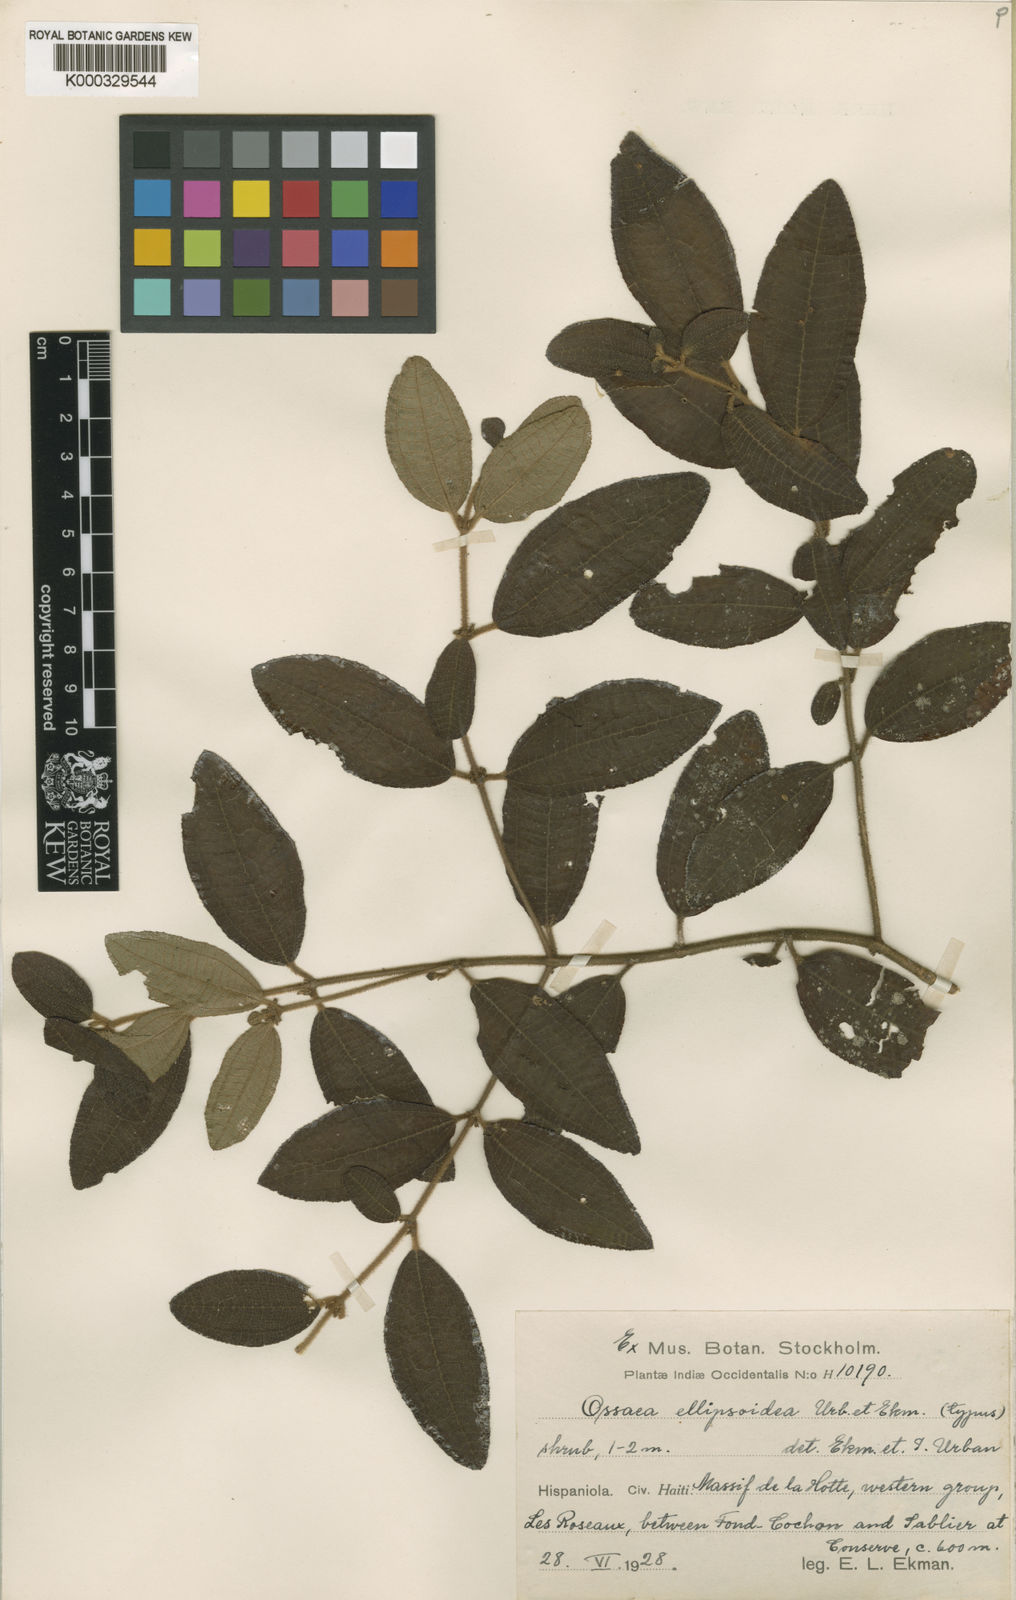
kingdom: Plantae
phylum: Tracheophyta
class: Magnoliopsida
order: Myrtales
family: Melastomataceae
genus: Miconia
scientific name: Miconia ellipsoidea
